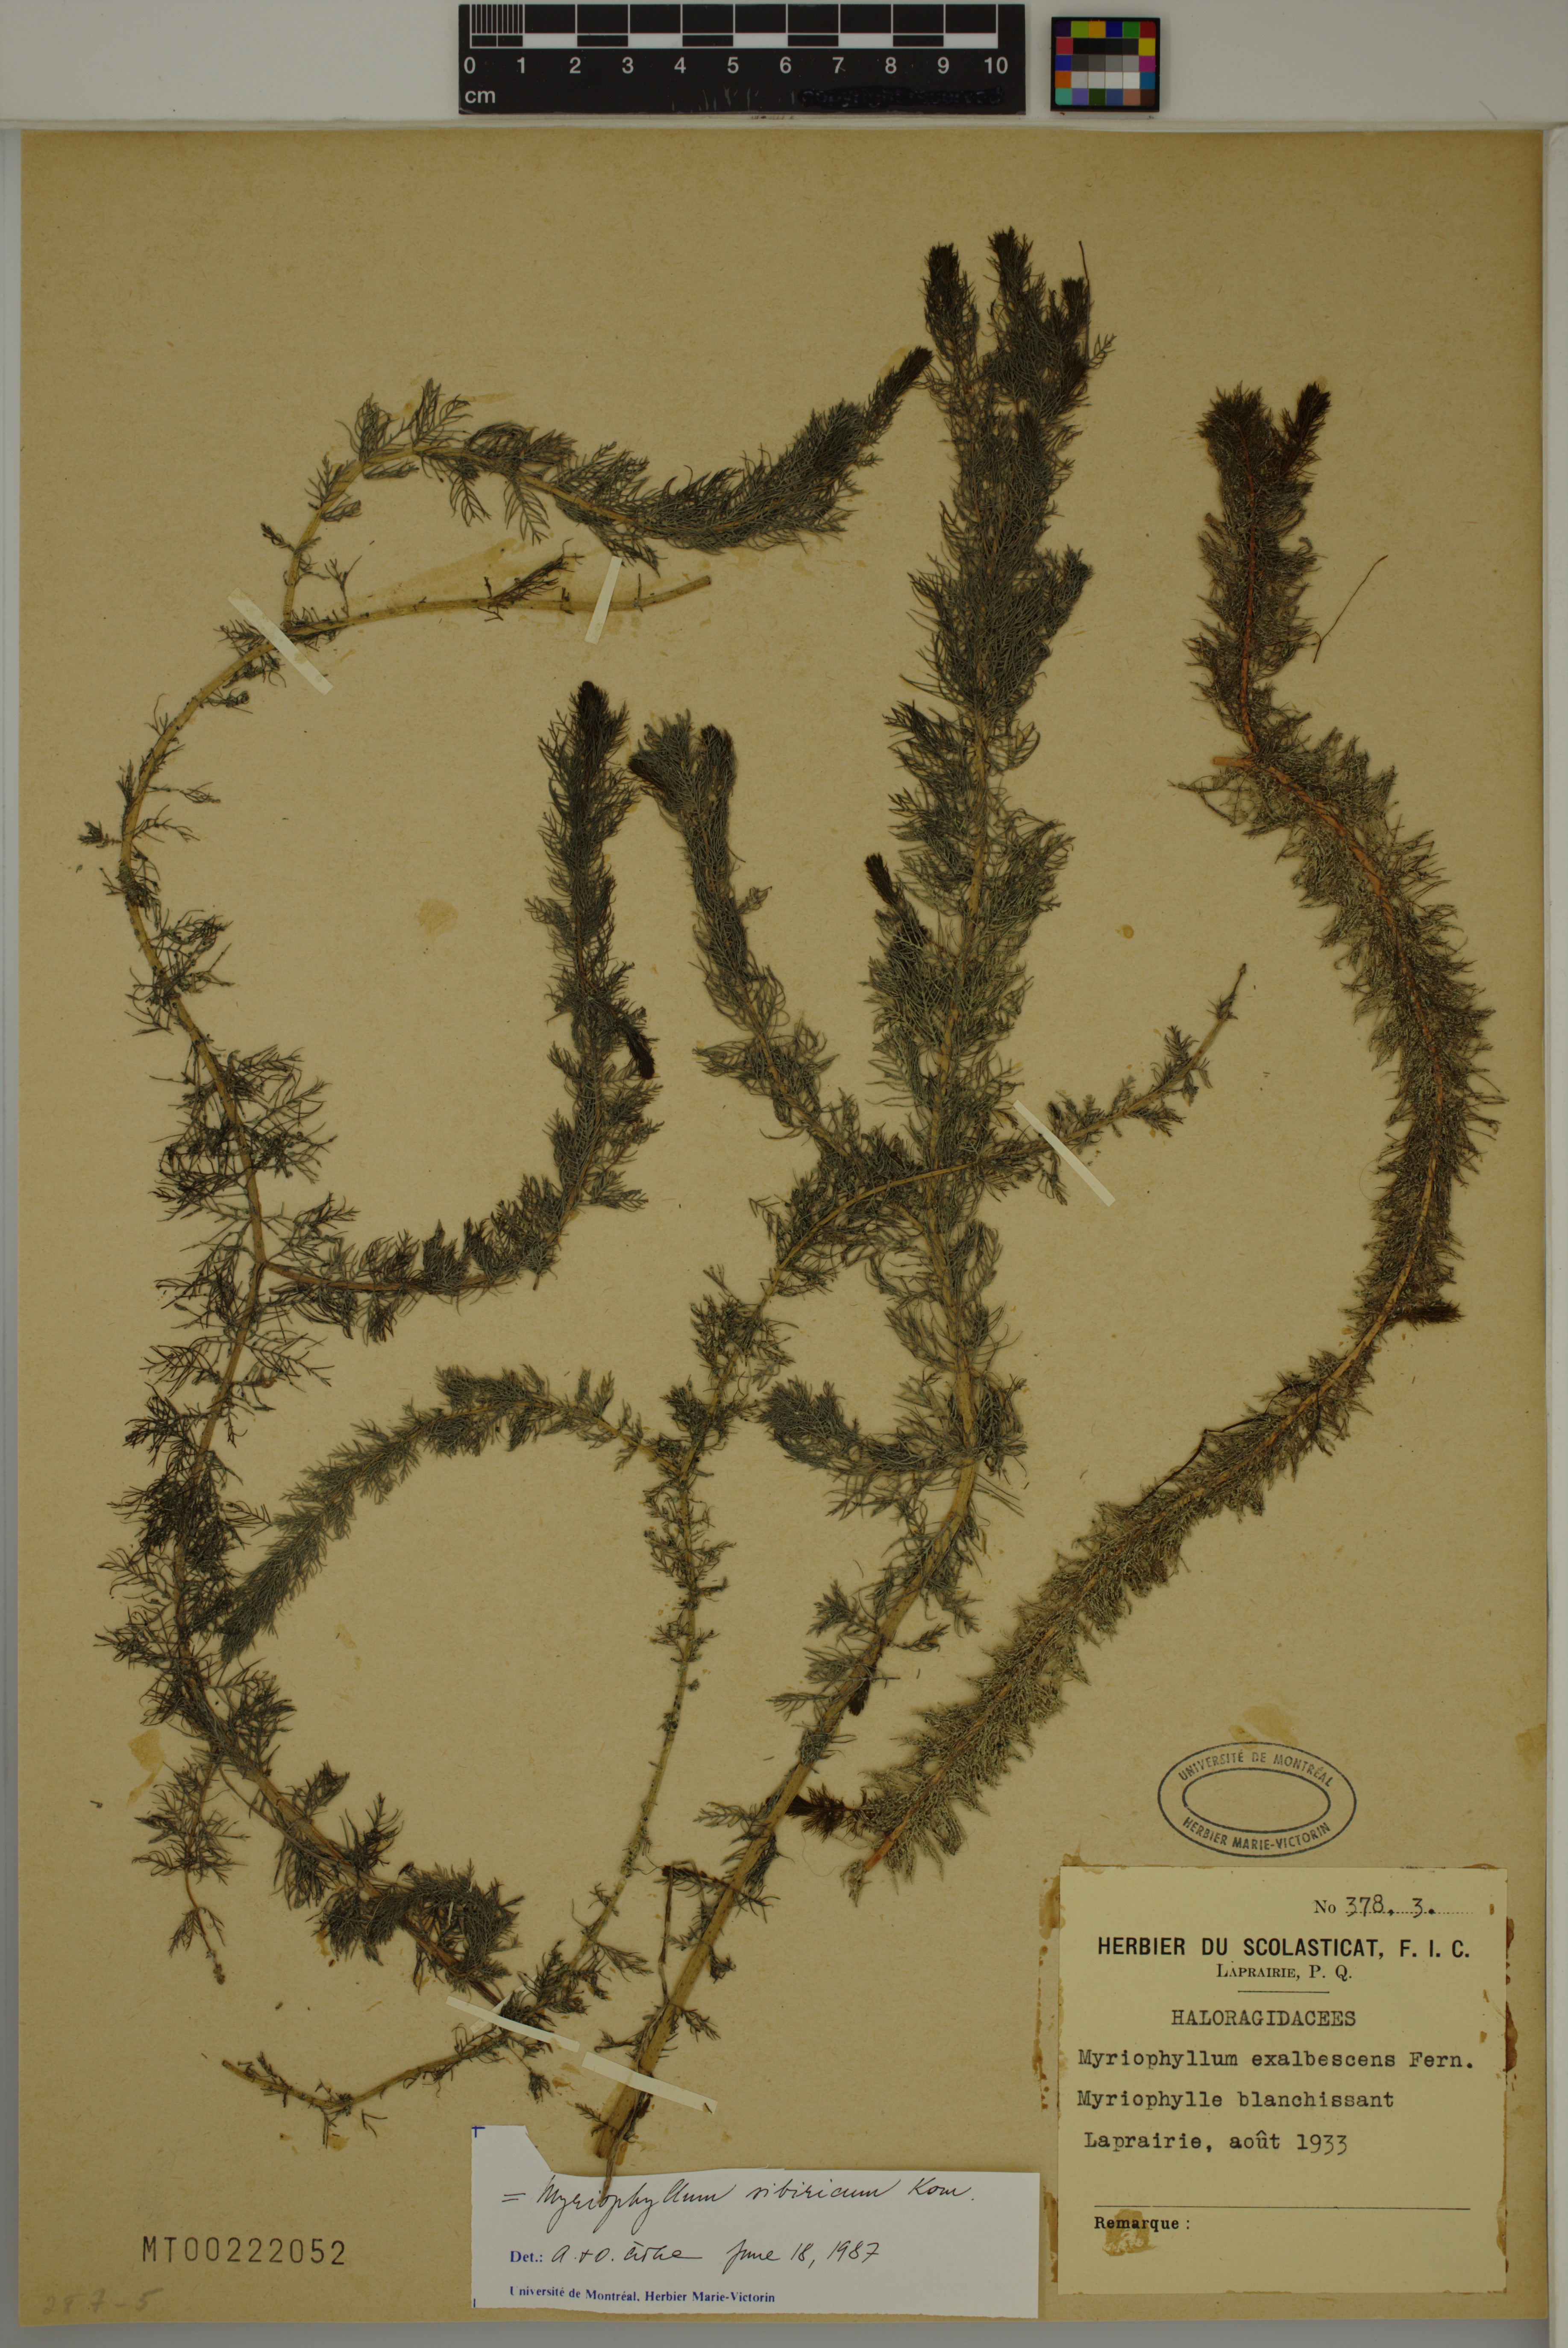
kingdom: Plantae
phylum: Tracheophyta
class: Magnoliopsida
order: Saxifragales
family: Haloragaceae
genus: Myriophyllum
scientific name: Myriophyllum sibiricum
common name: Siberian water-milfoil
